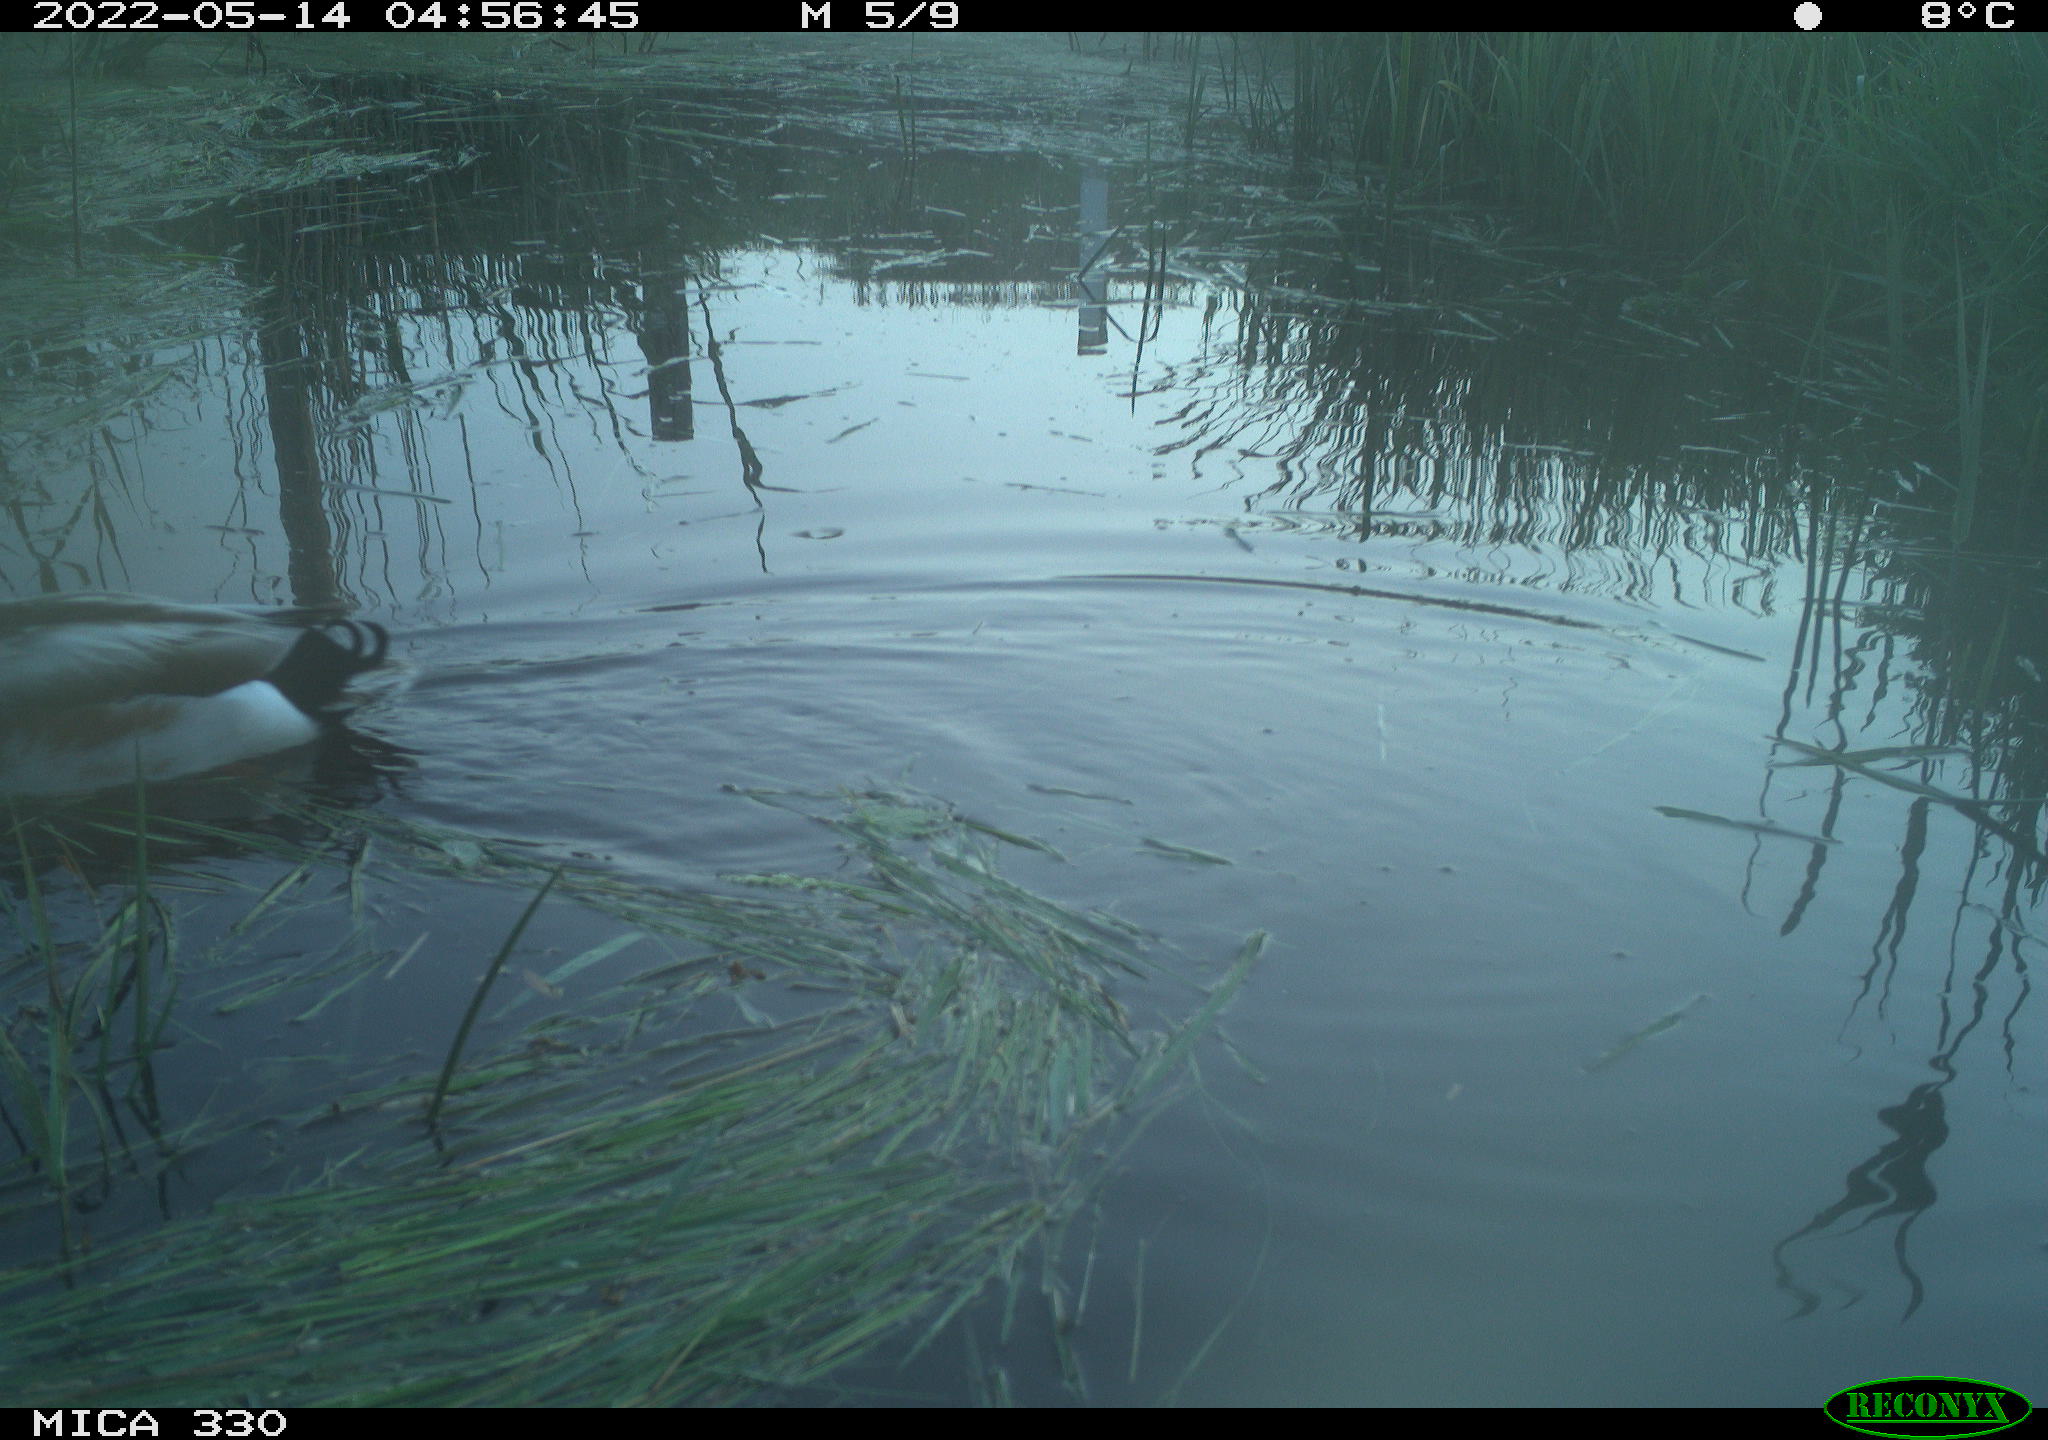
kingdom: Animalia
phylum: Chordata
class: Aves
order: Anseriformes
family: Anatidae
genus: Anas
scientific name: Anas platyrhynchos
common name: Mallard
